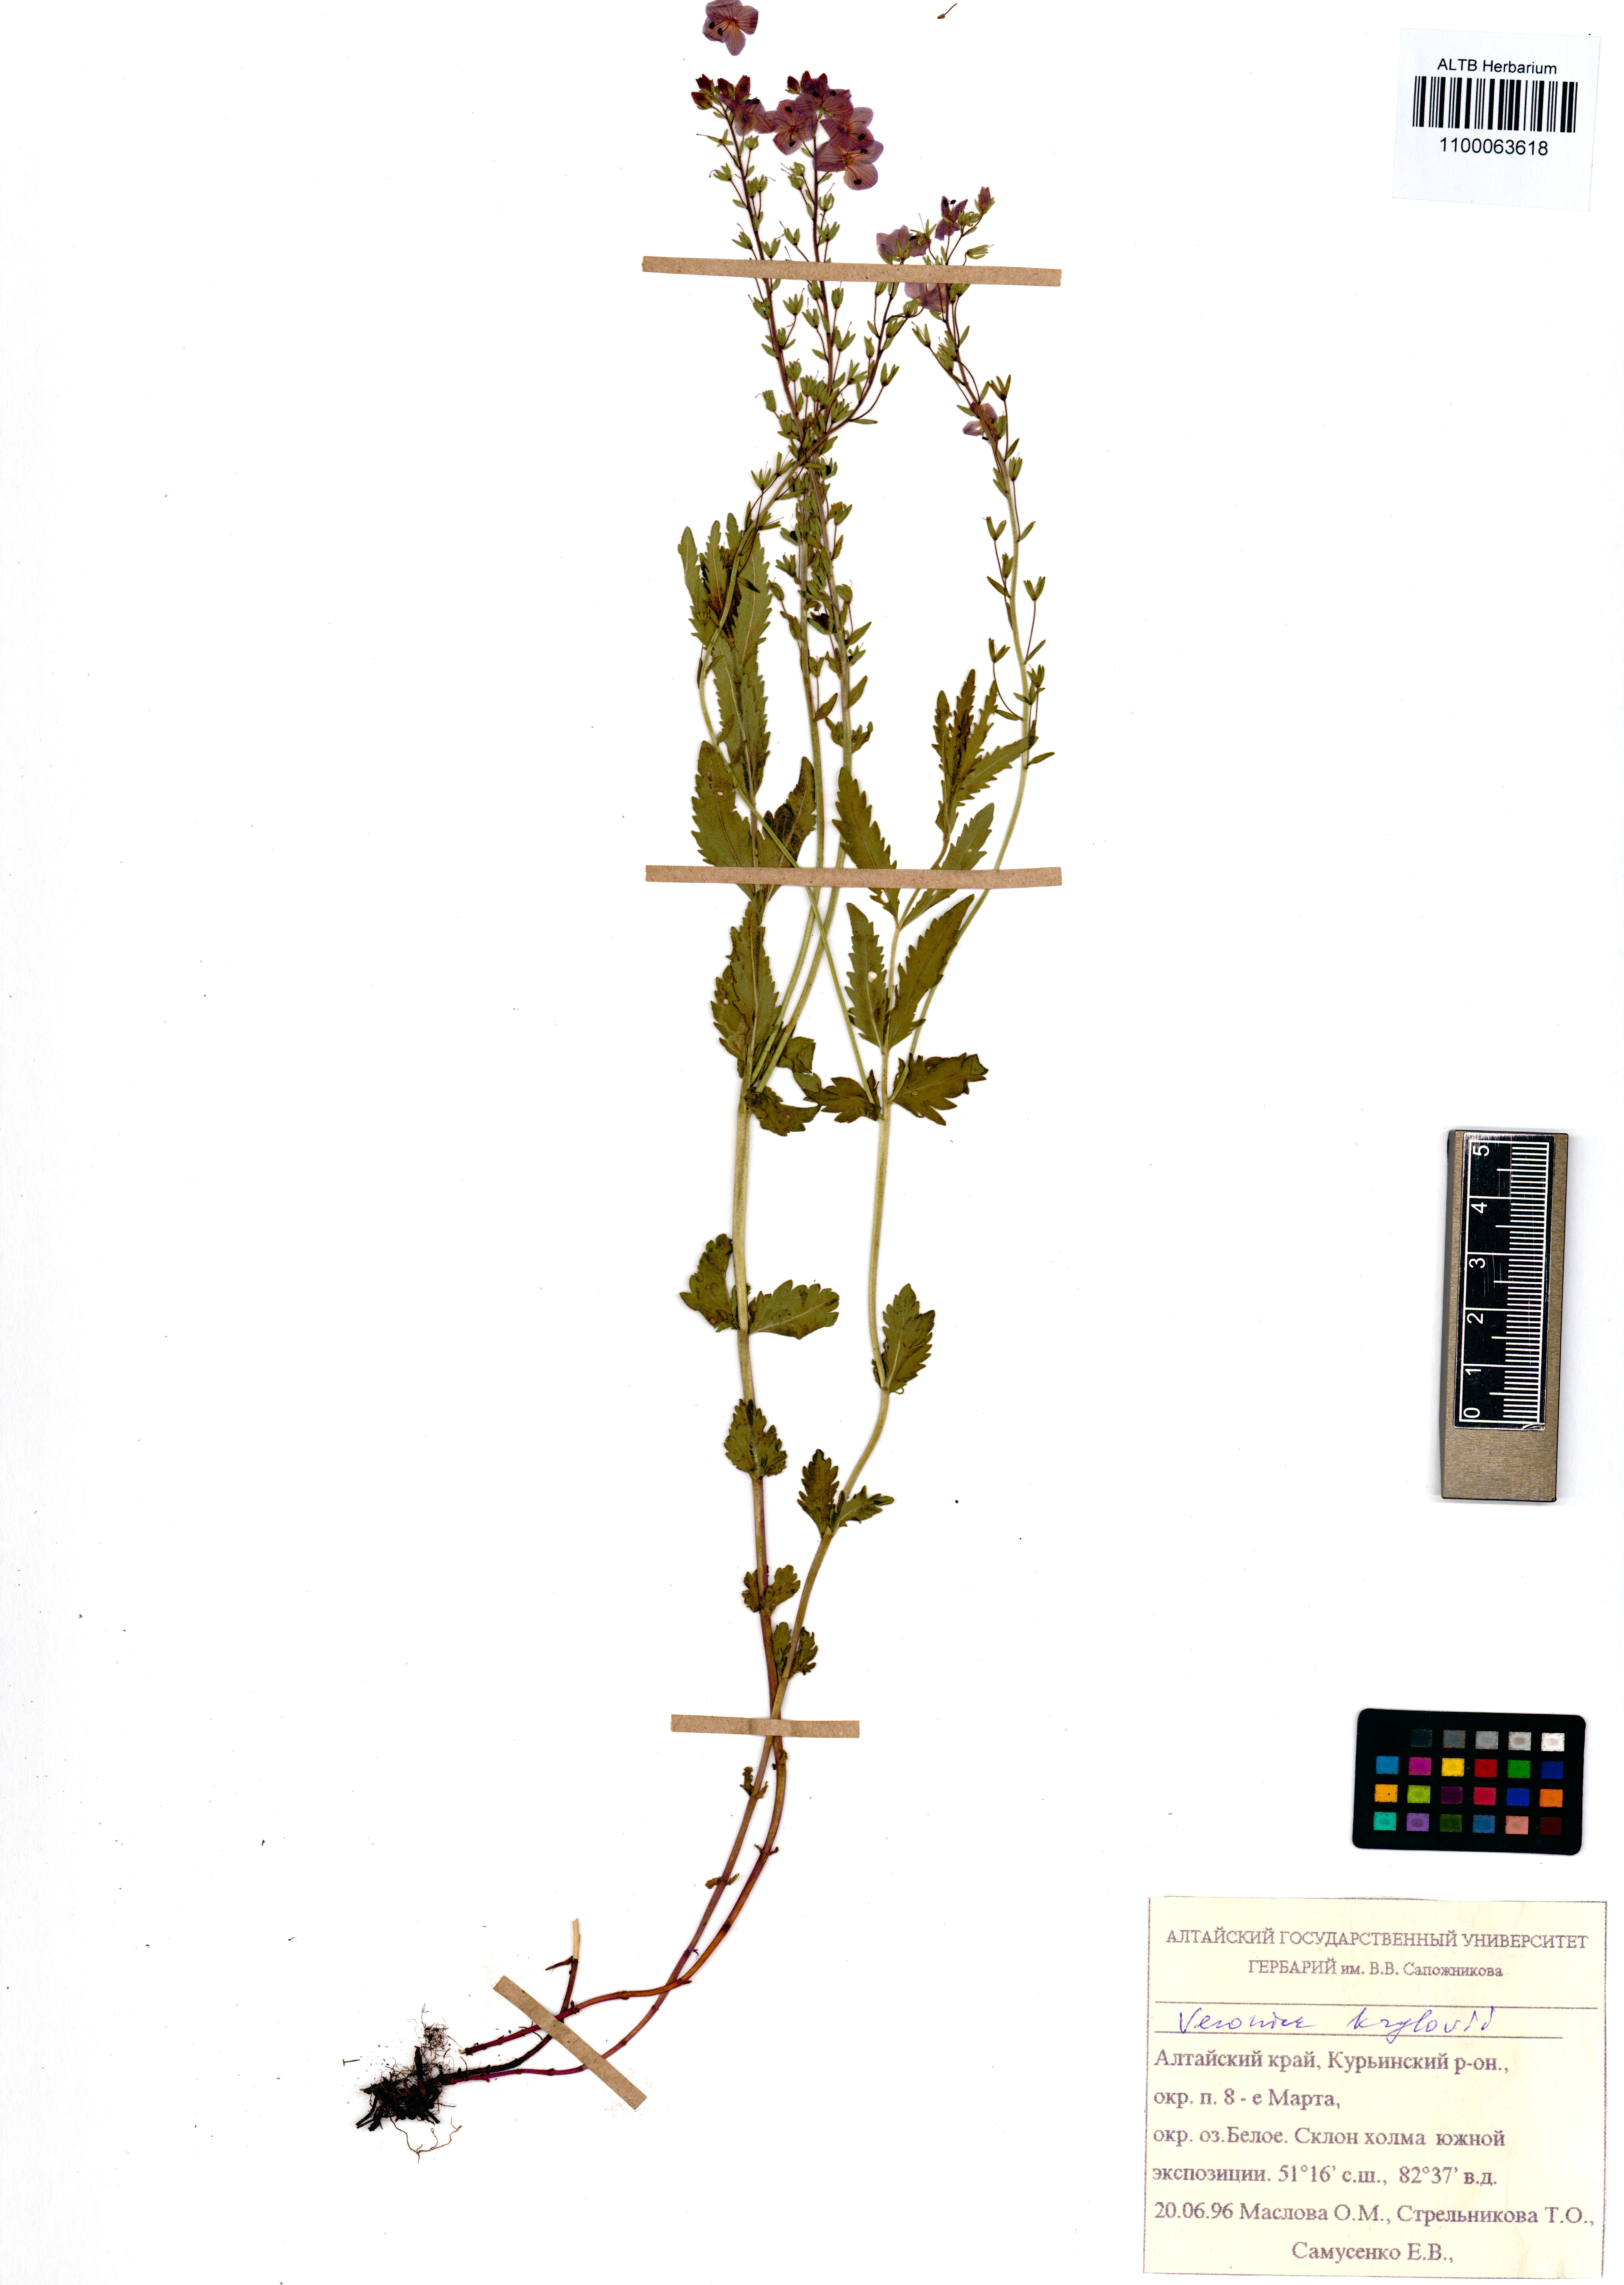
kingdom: Plantae
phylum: Tracheophyta
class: Magnoliopsida
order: Dipsacales
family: Caprifoliaceae
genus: Valeriana
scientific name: Valeriana officinalis
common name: Common valerian
